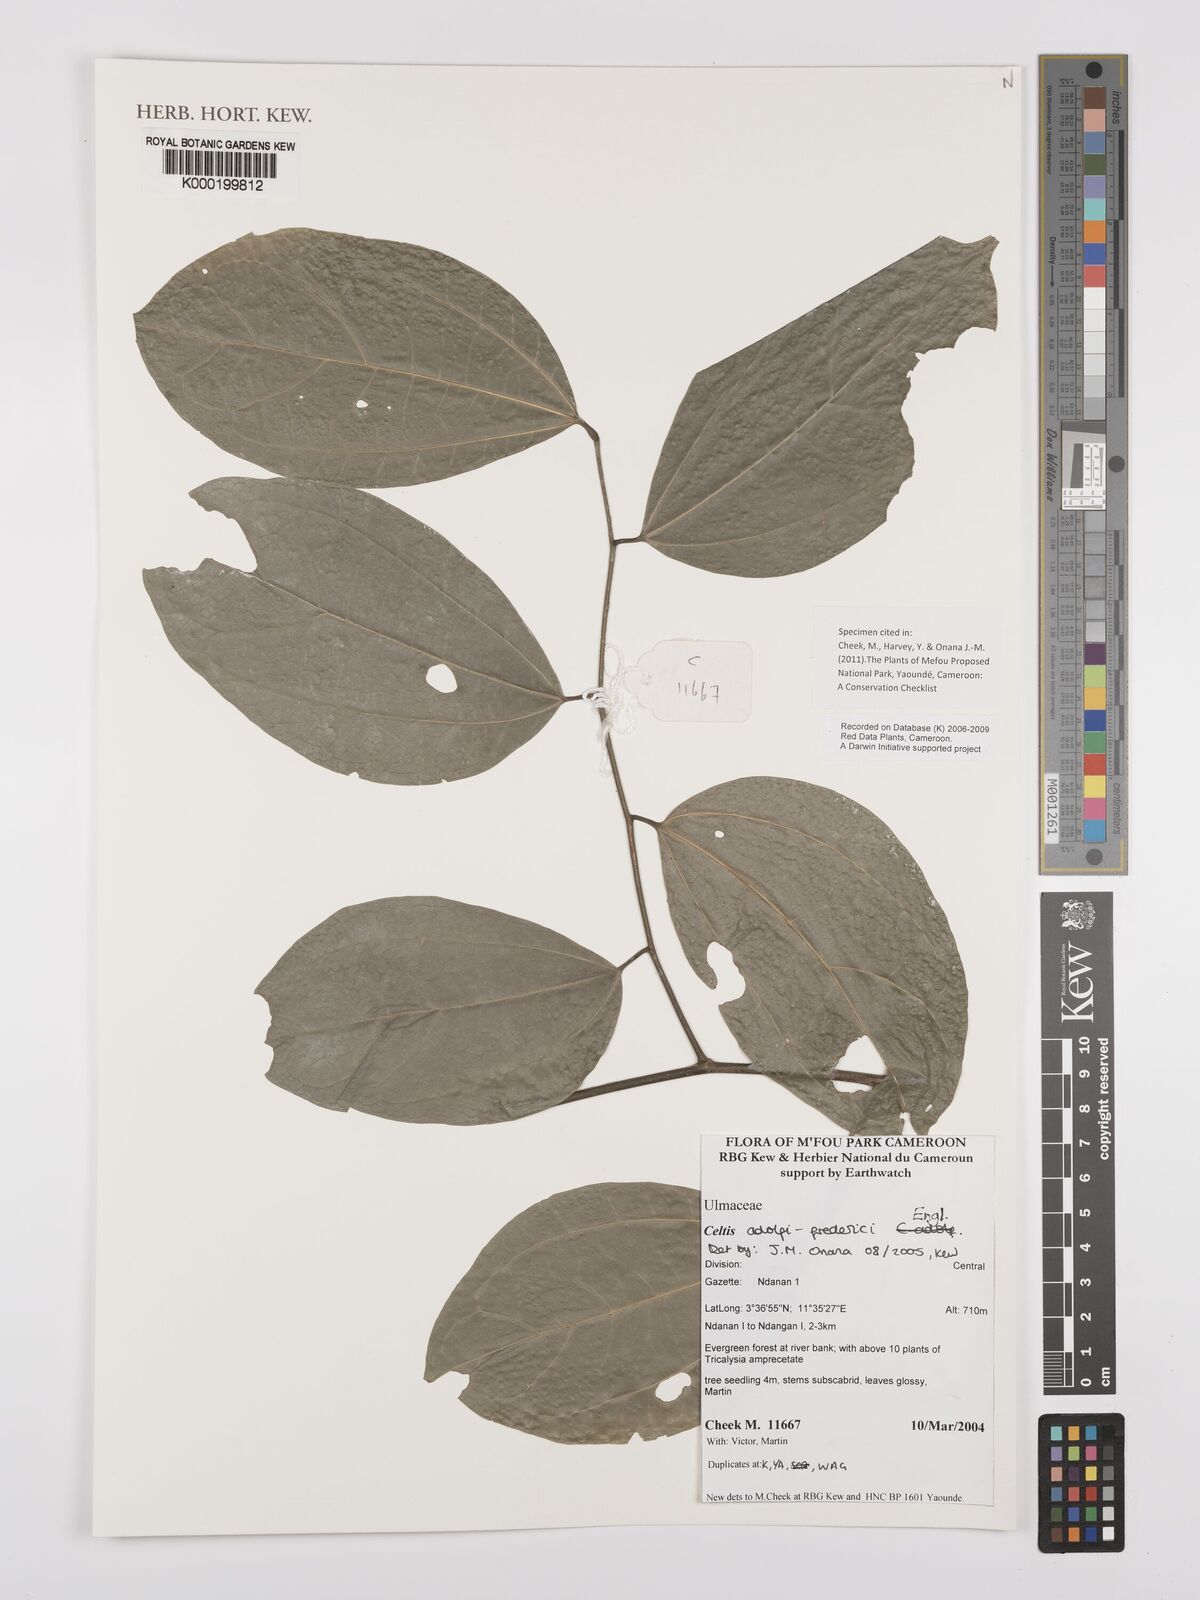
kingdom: Plantae
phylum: Tracheophyta
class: Magnoliopsida
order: Rosales
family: Cannabaceae
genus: Celtis
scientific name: Celtis adolfi-friderici
